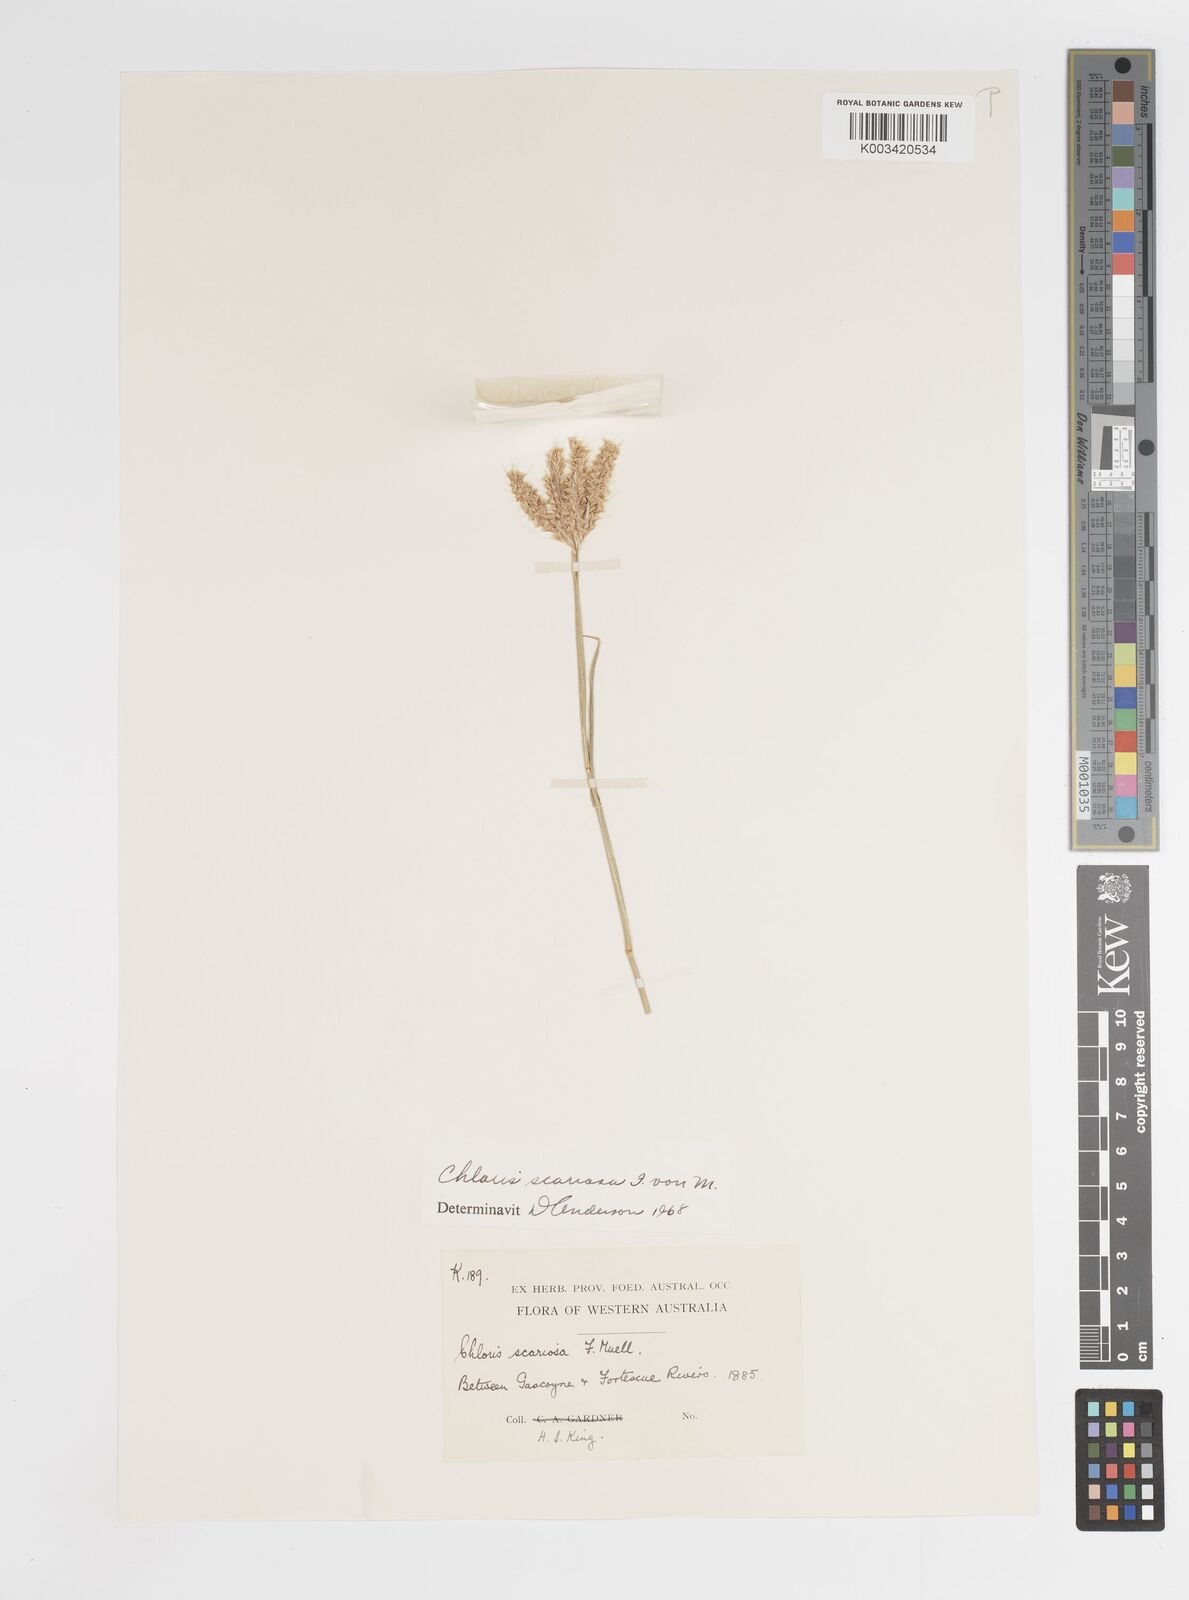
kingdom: Plantae
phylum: Tracheophyta
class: Liliopsida
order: Poales
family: Poaceae
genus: Oxychloris
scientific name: Oxychloris scariosa
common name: Winged windmill grass
